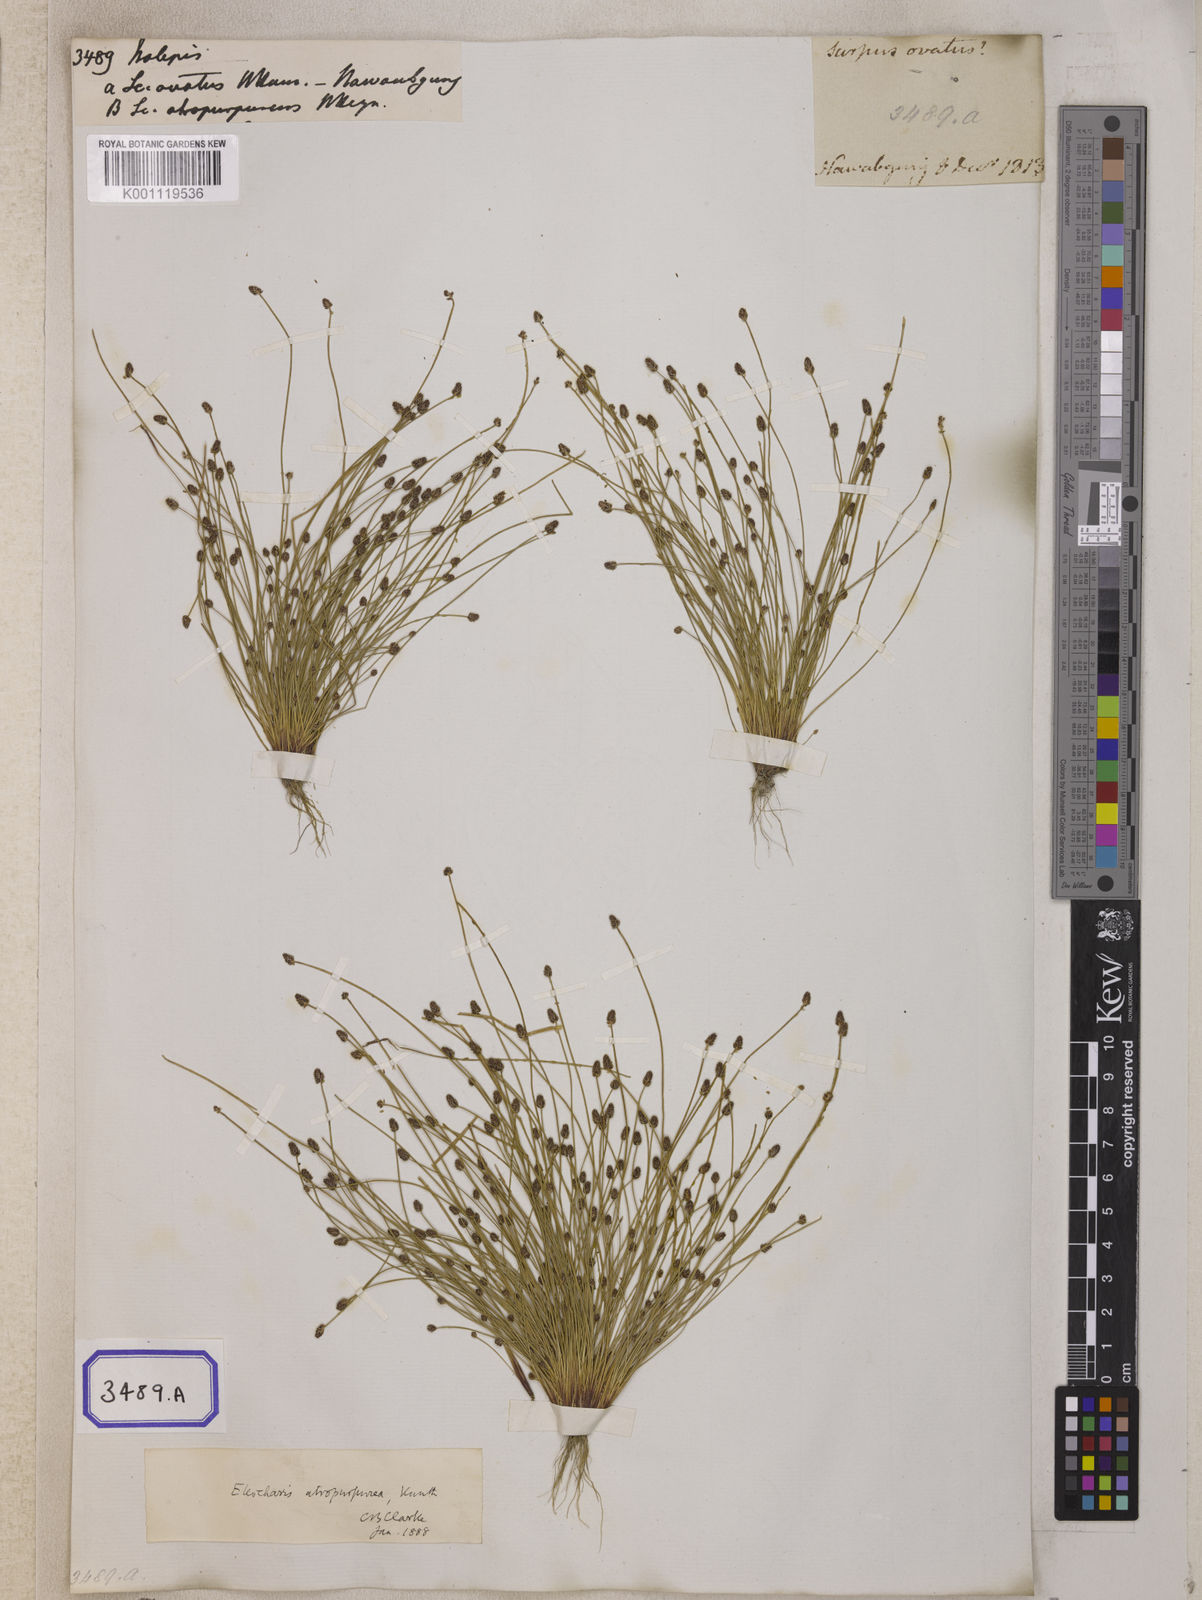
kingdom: Plantae
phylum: Tracheophyta
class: Liliopsida
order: Poales
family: Cyperaceae
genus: Isolepis
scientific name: Isolepis
